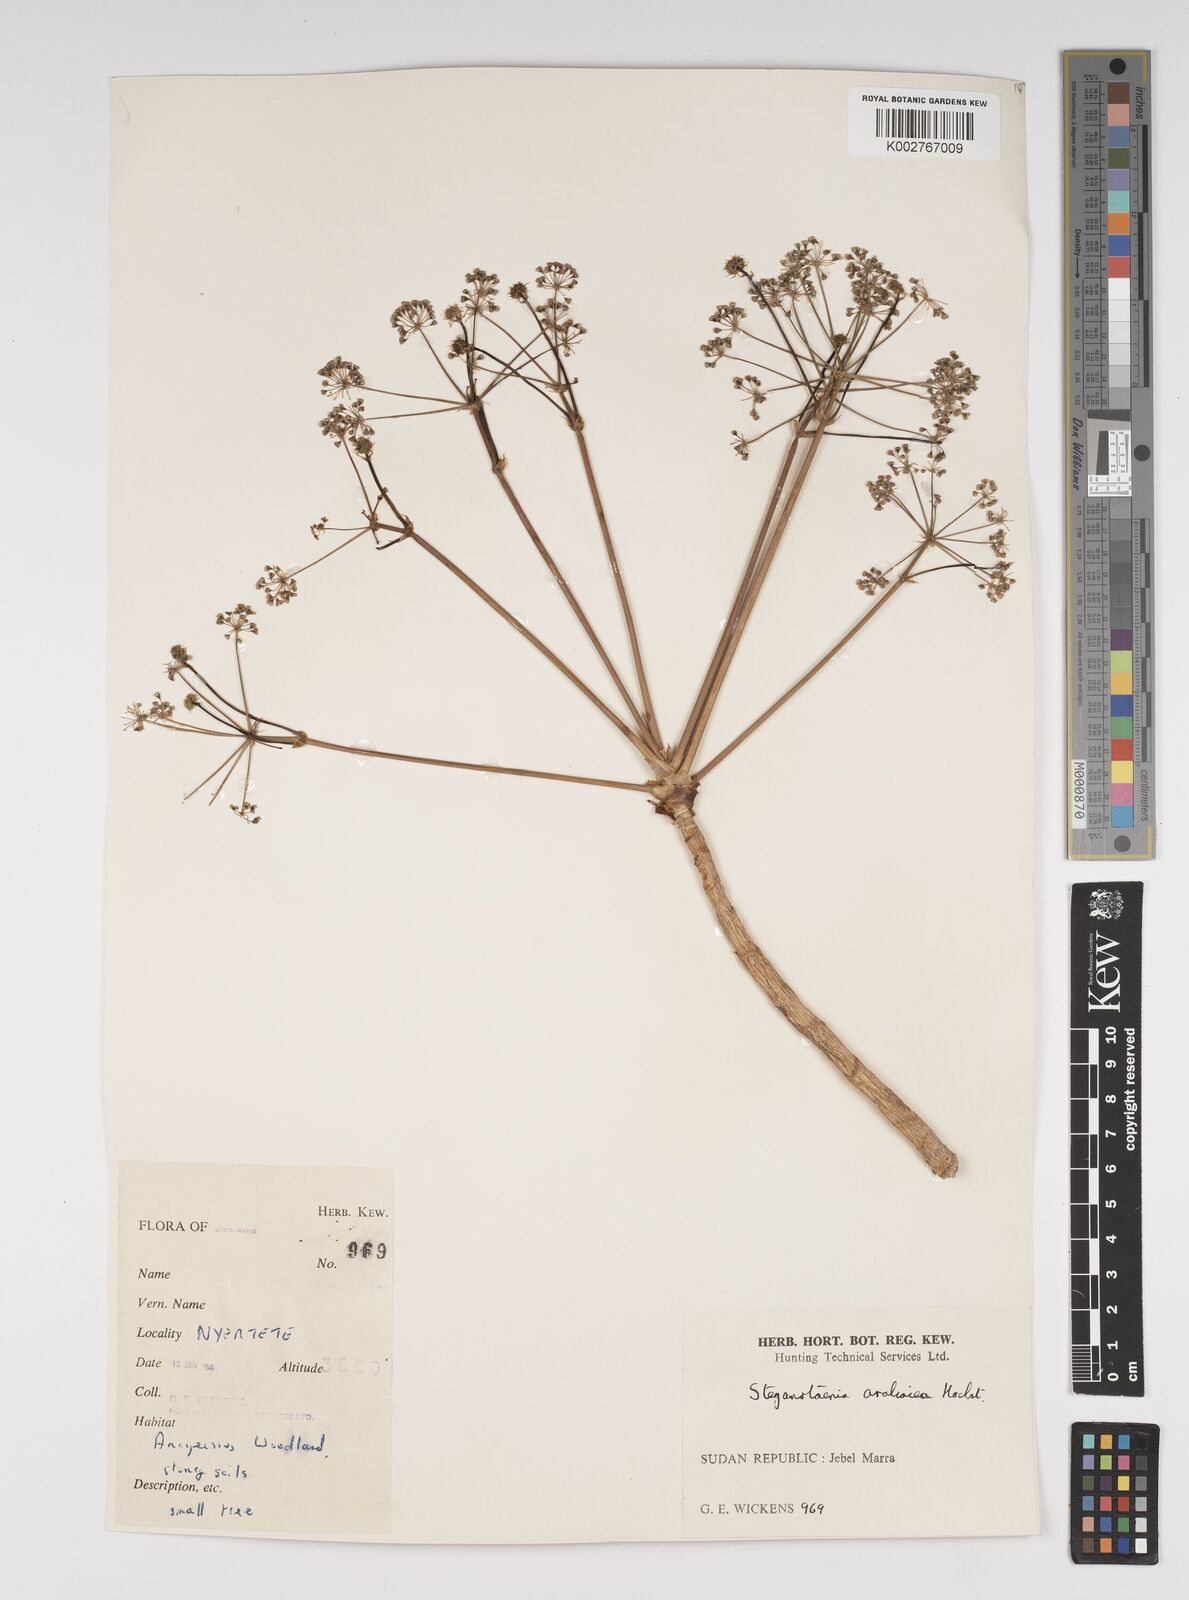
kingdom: Plantae
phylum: Tracheophyta
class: Magnoliopsida
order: Apiales
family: Apiaceae
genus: Steganotaenia
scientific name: Steganotaenia araliacea
